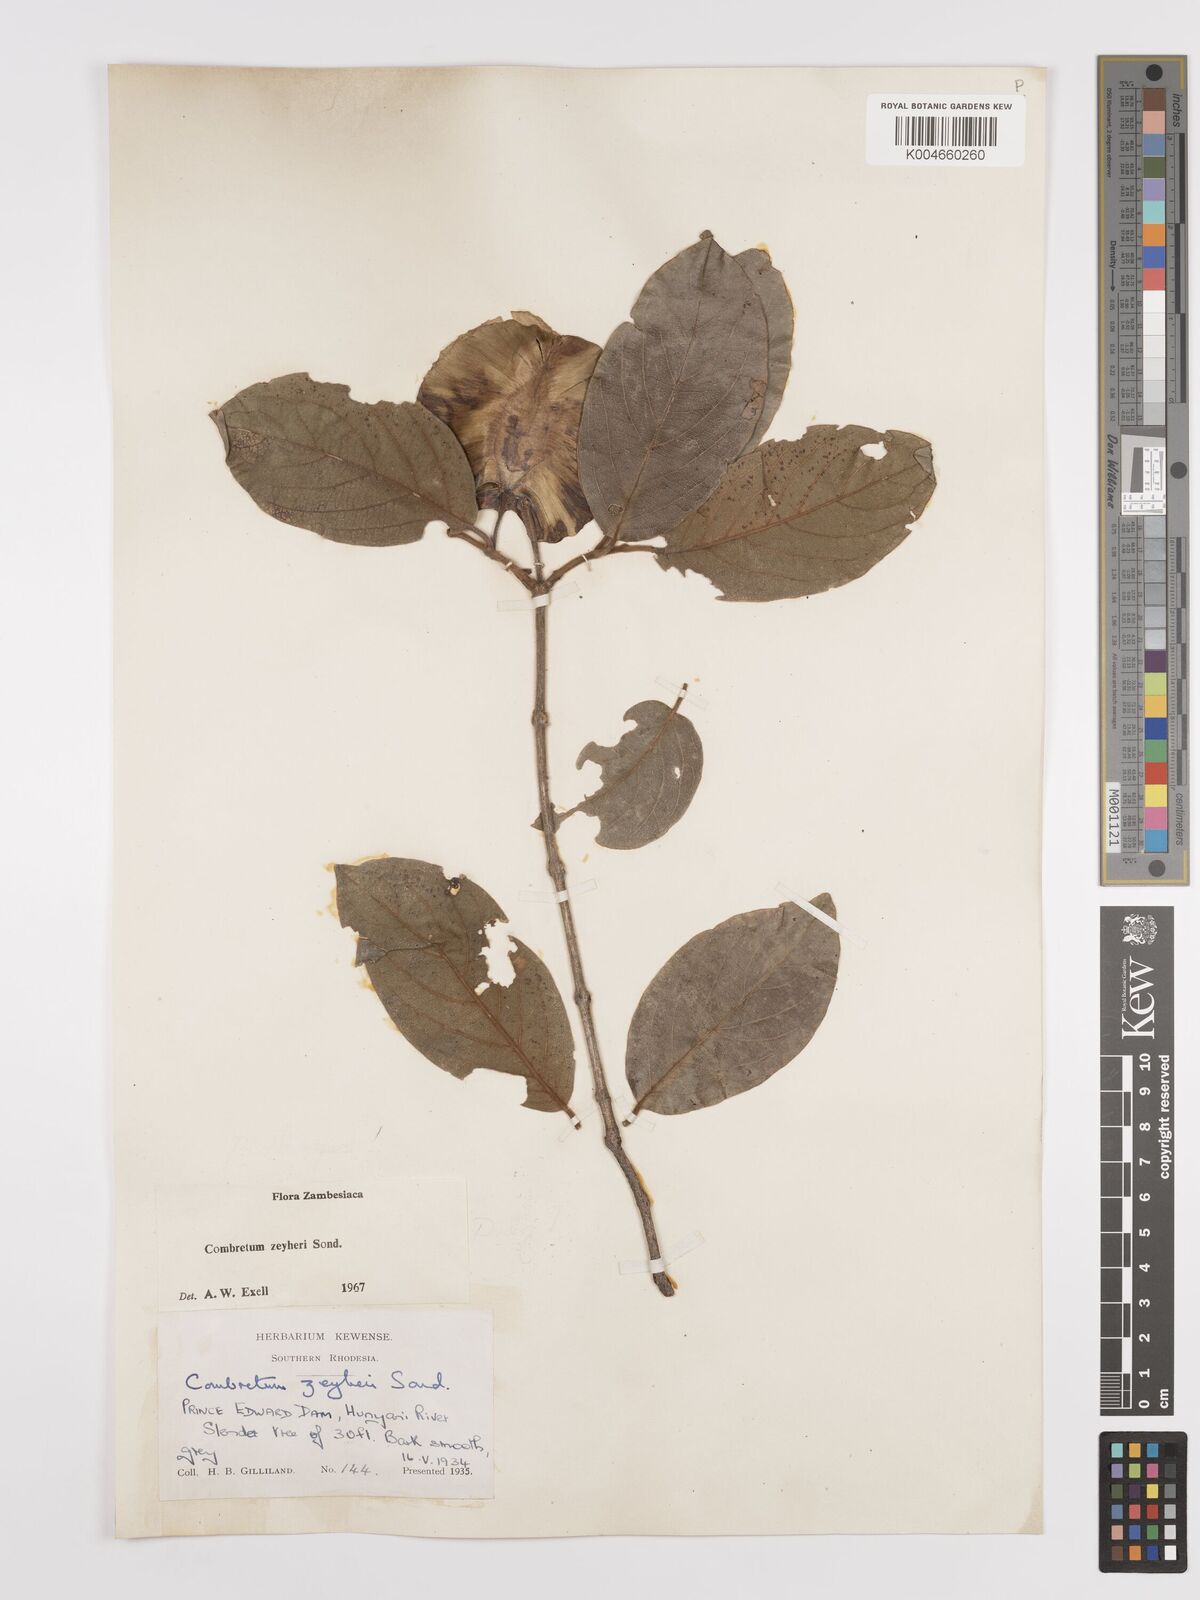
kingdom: Plantae
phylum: Tracheophyta
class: Magnoliopsida
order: Myrtales
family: Combretaceae
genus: Combretum
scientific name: Combretum zeyheri
